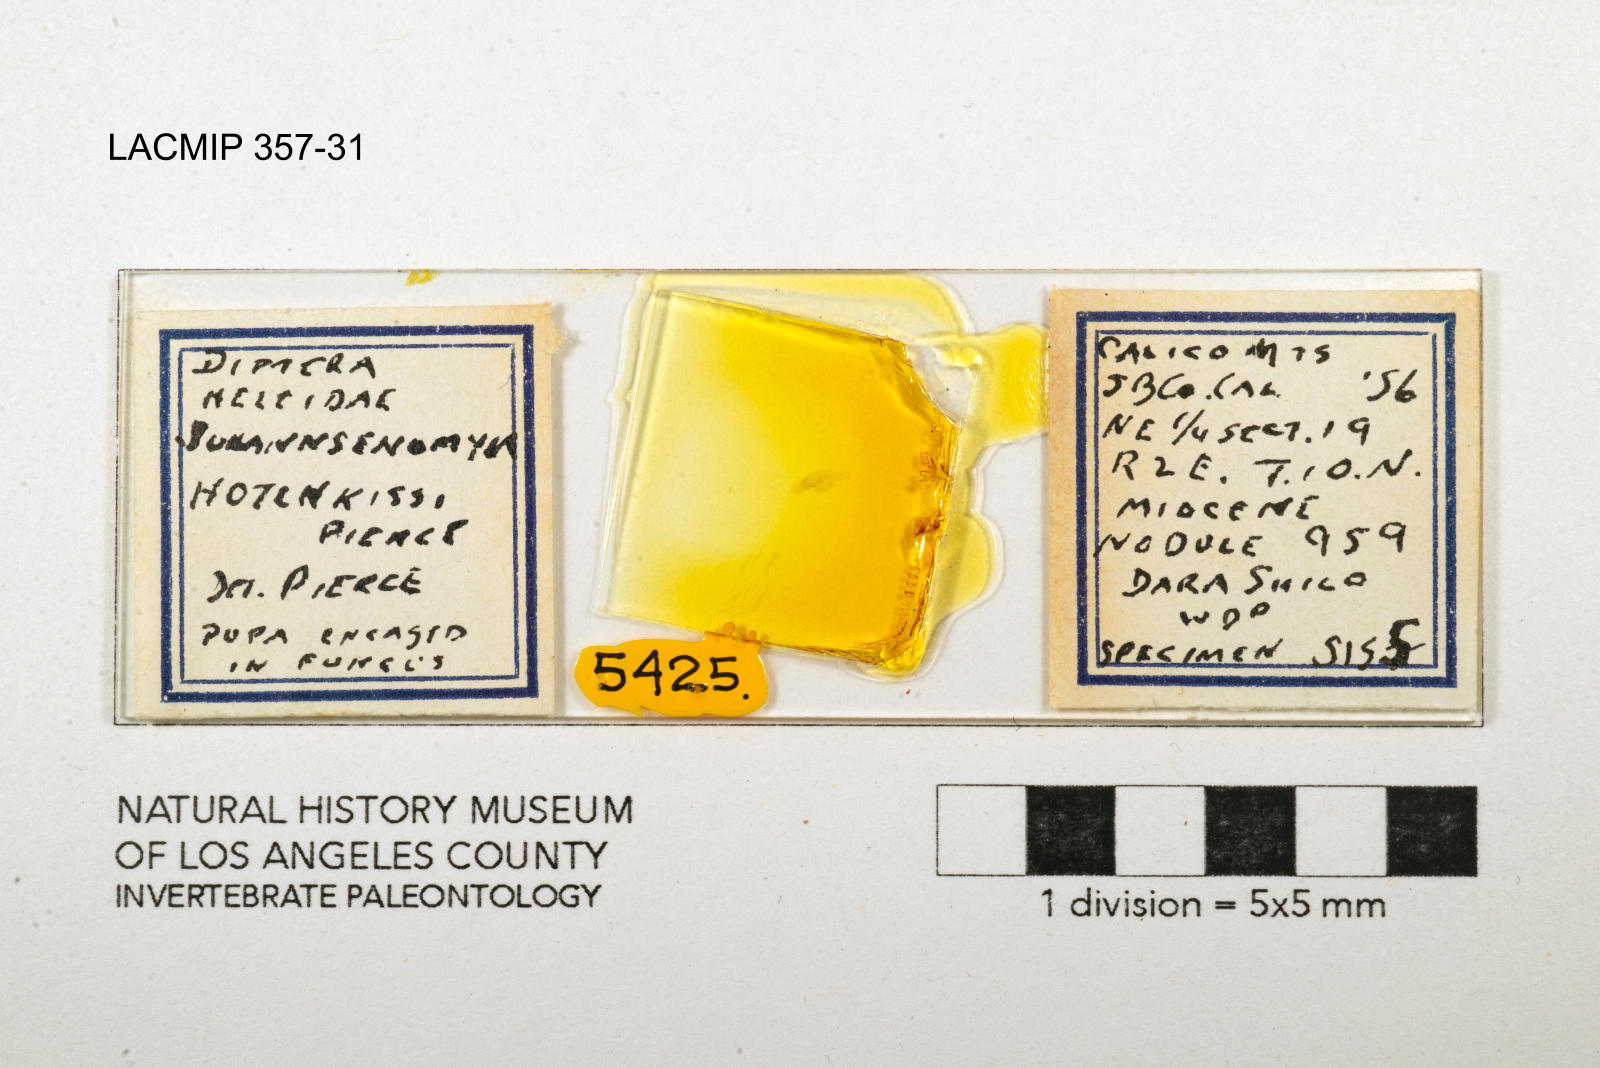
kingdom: Animalia
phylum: Arthropoda
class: Insecta
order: Diptera
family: Ceratopogonidae
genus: Johannsenomyia
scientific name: Johannsenomyia
